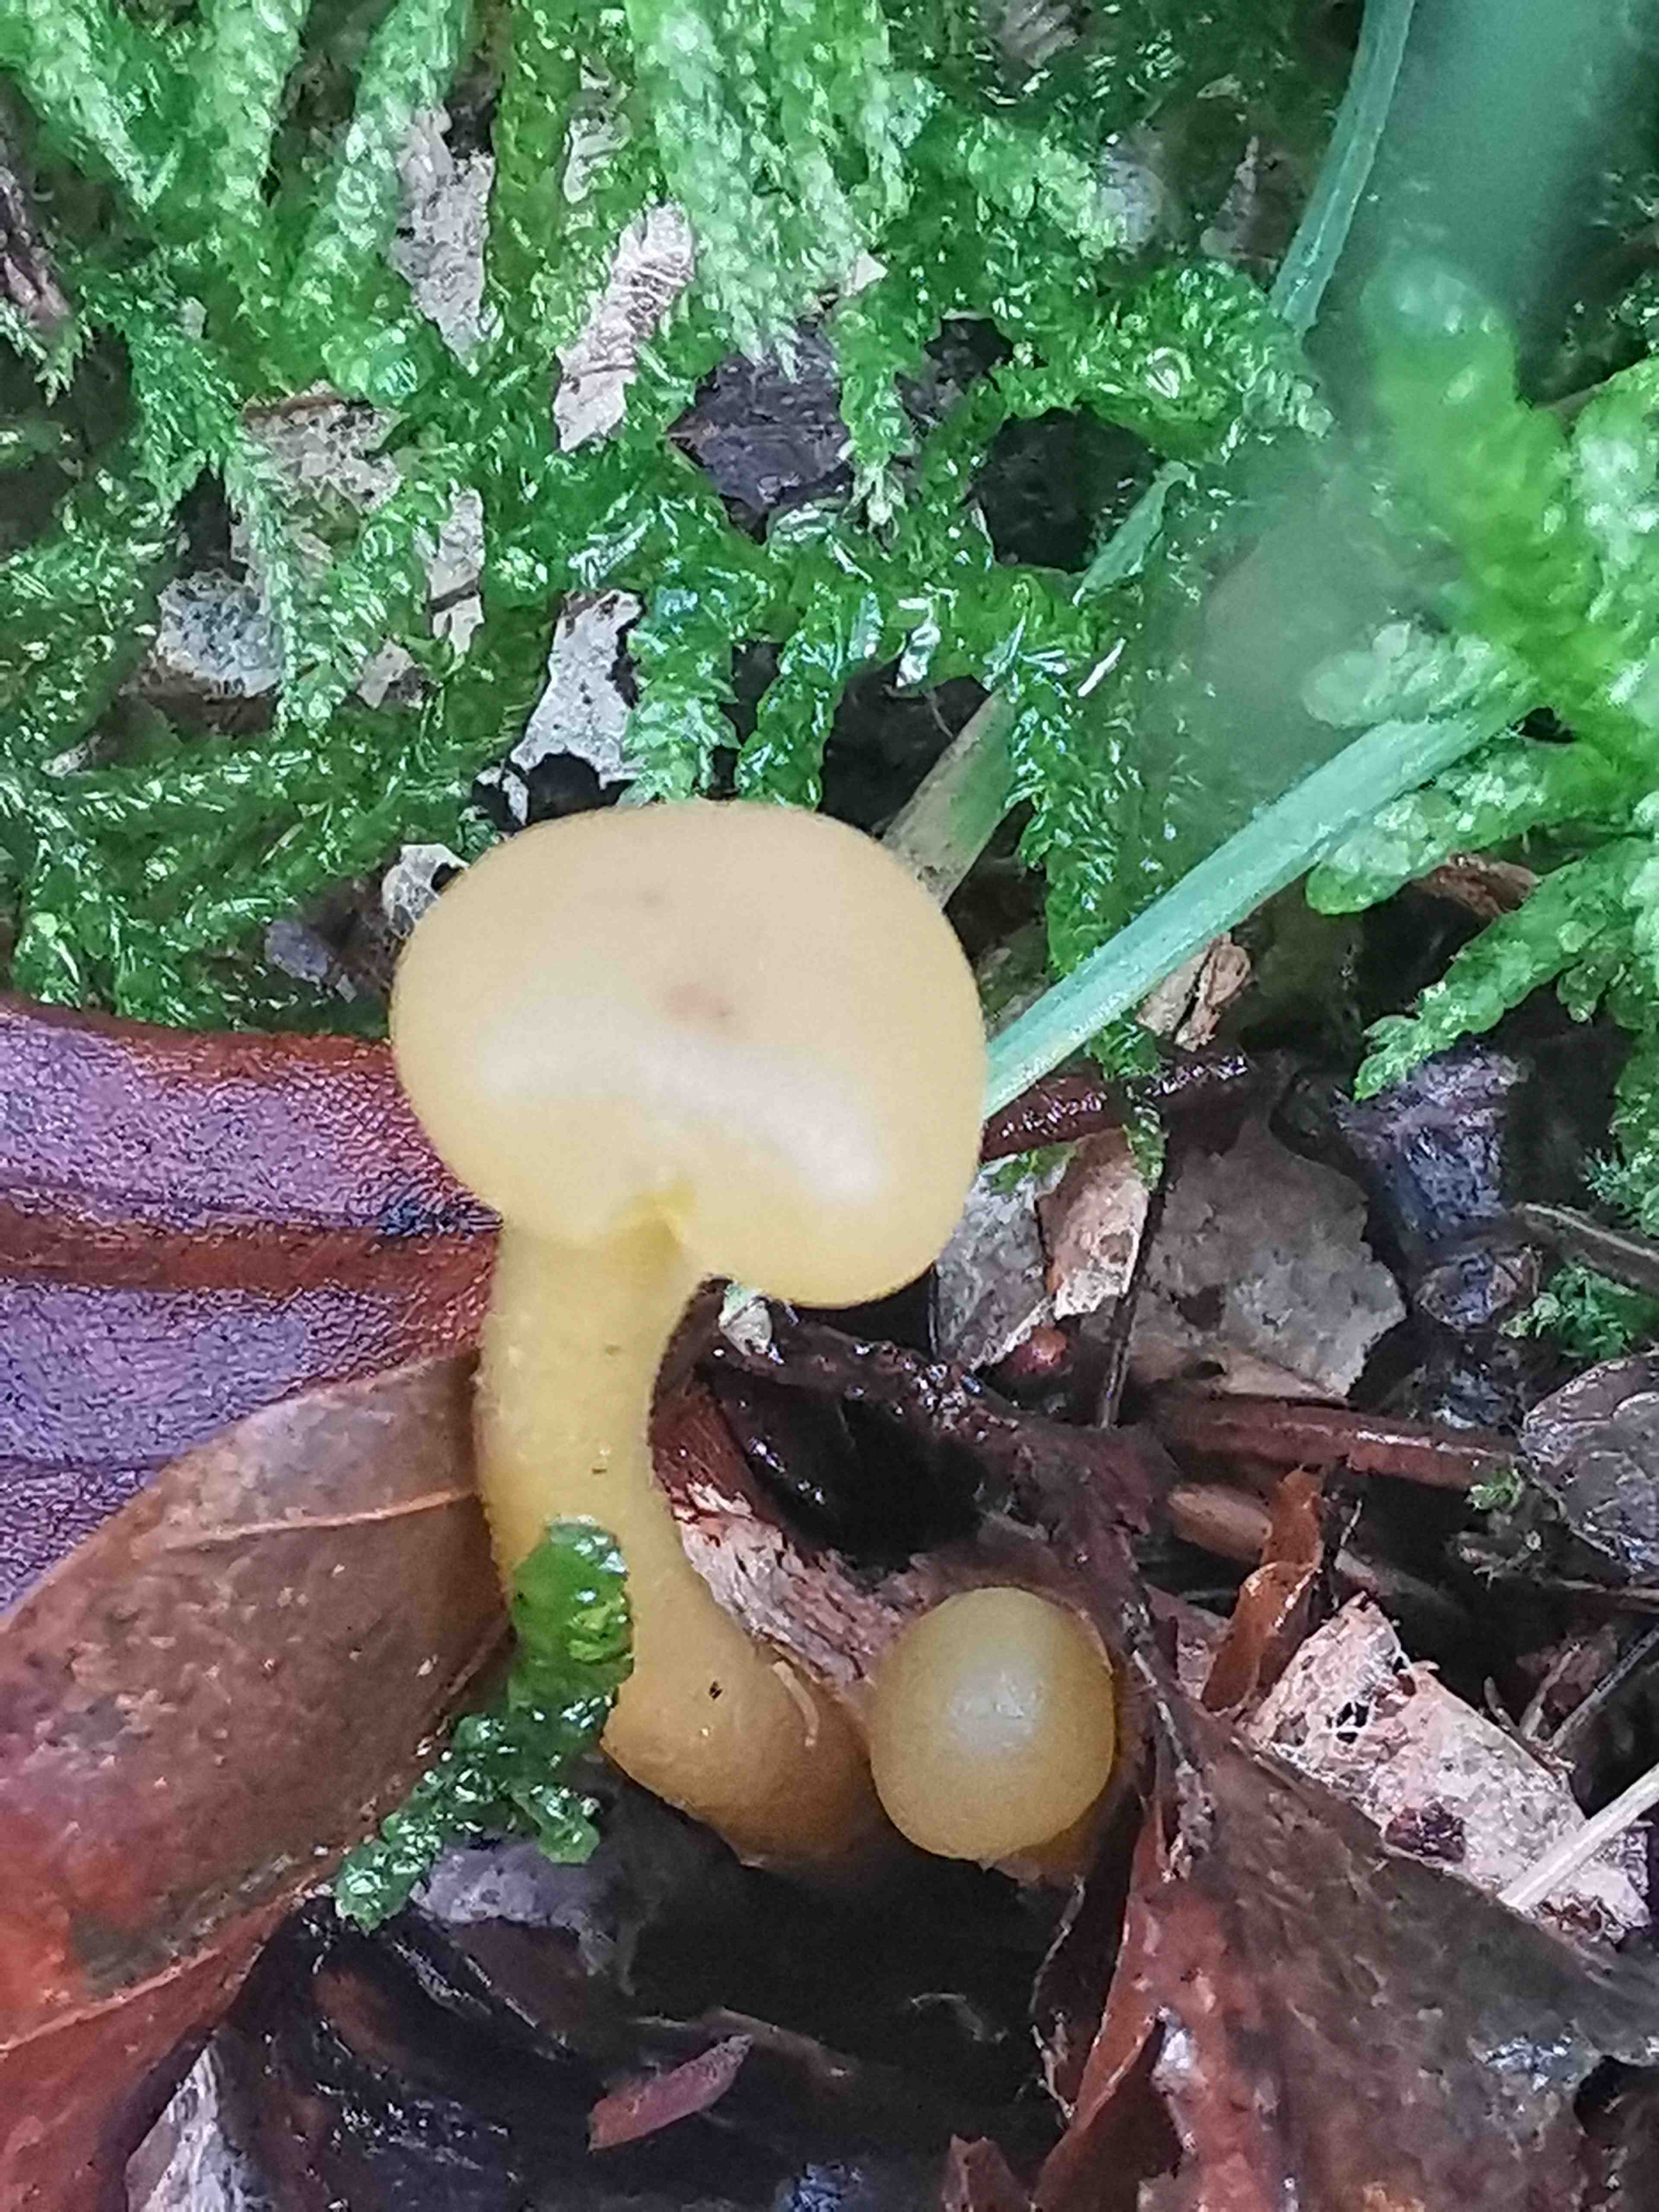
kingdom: Fungi
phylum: Ascomycota
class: Leotiomycetes
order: Leotiales
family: Leotiaceae
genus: Leotia
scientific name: Leotia lubrica
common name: ravsvamp
